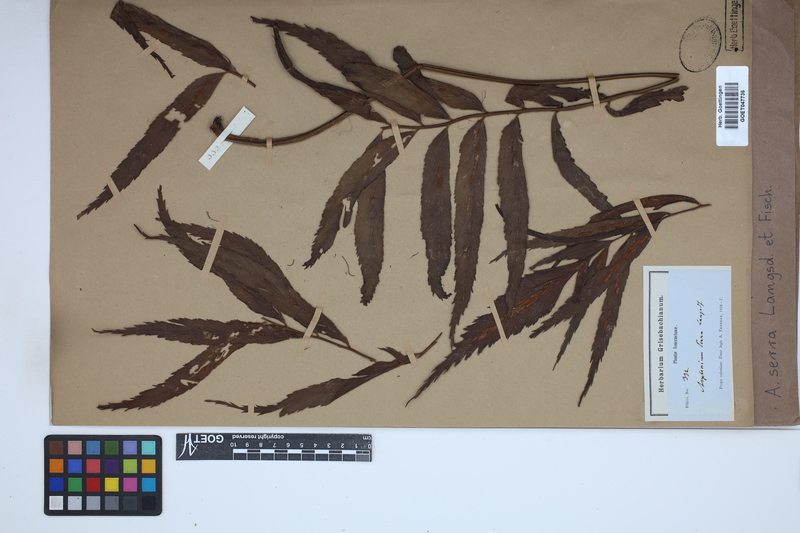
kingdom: Plantae
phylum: Tracheophyta
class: Polypodiopsida
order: Polypodiales
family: Aspleniaceae
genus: Asplenium
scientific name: Asplenium serra
